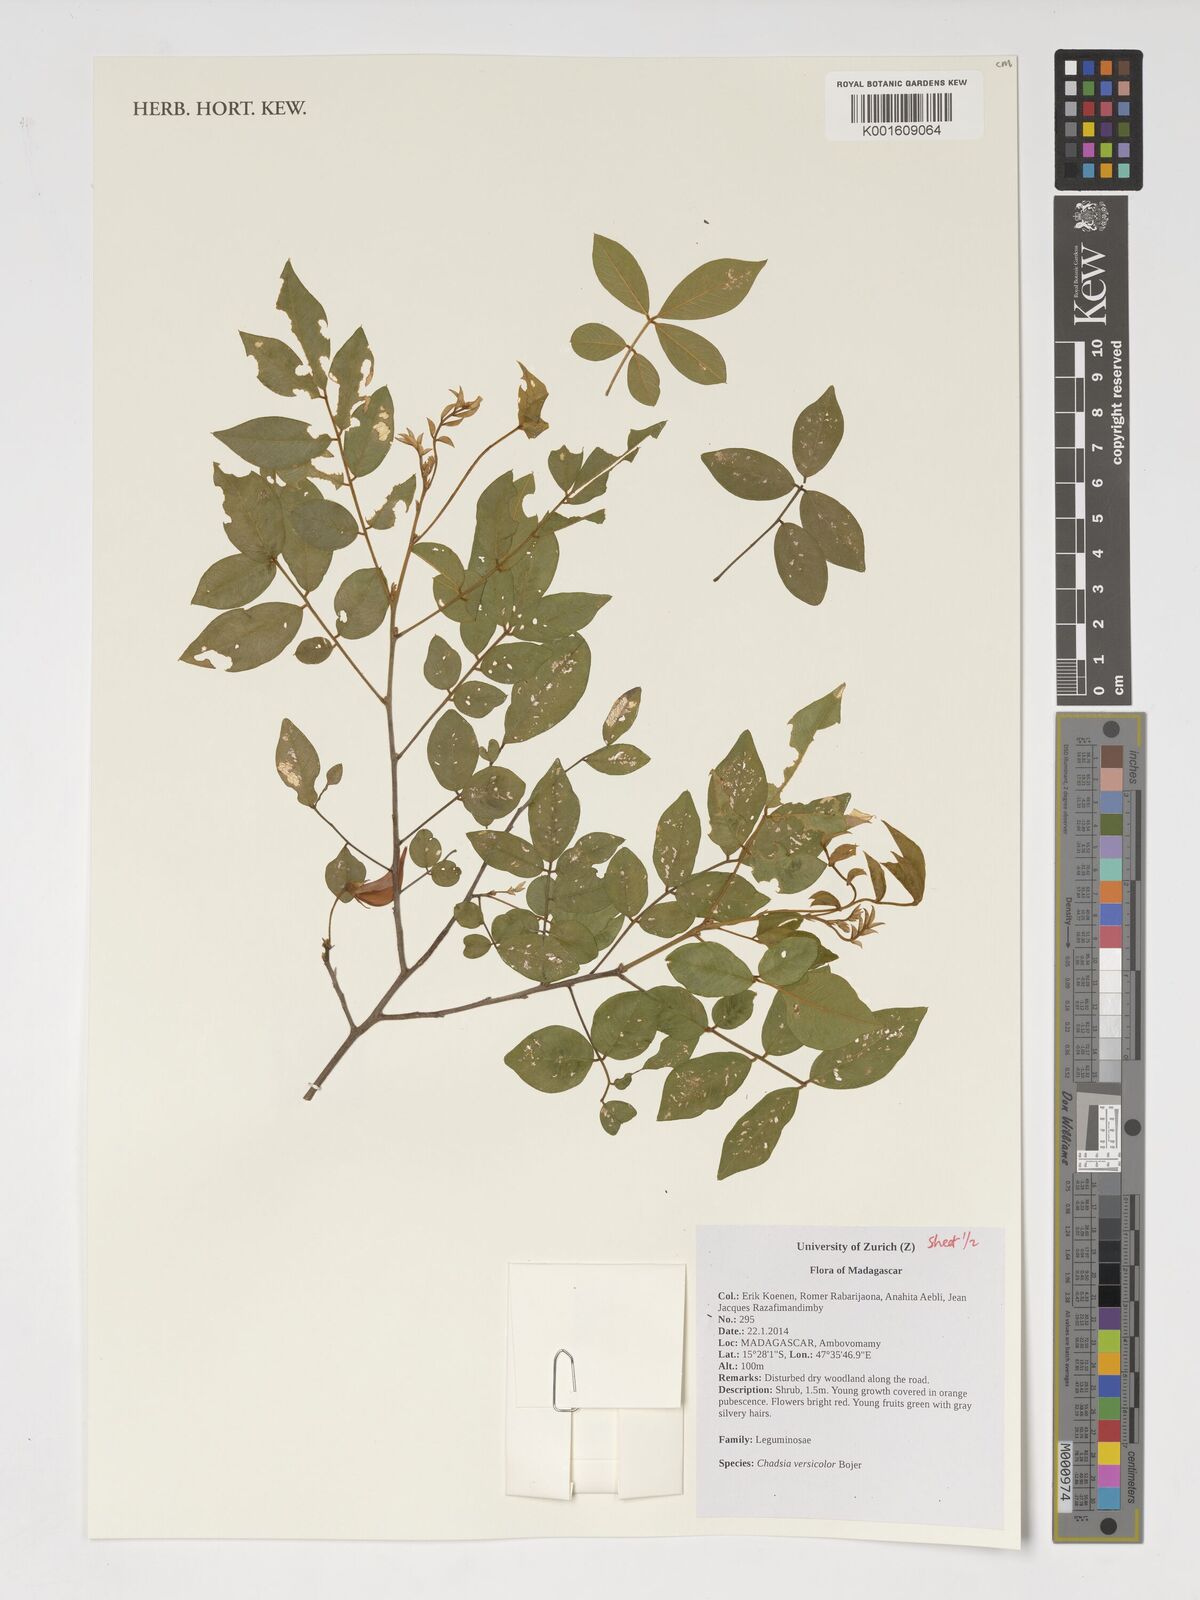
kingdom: Plantae
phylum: Tracheophyta
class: Magnoliopsida
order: Fabales
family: Fabaceae
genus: Chadsia
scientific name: Chadsia versicolor
